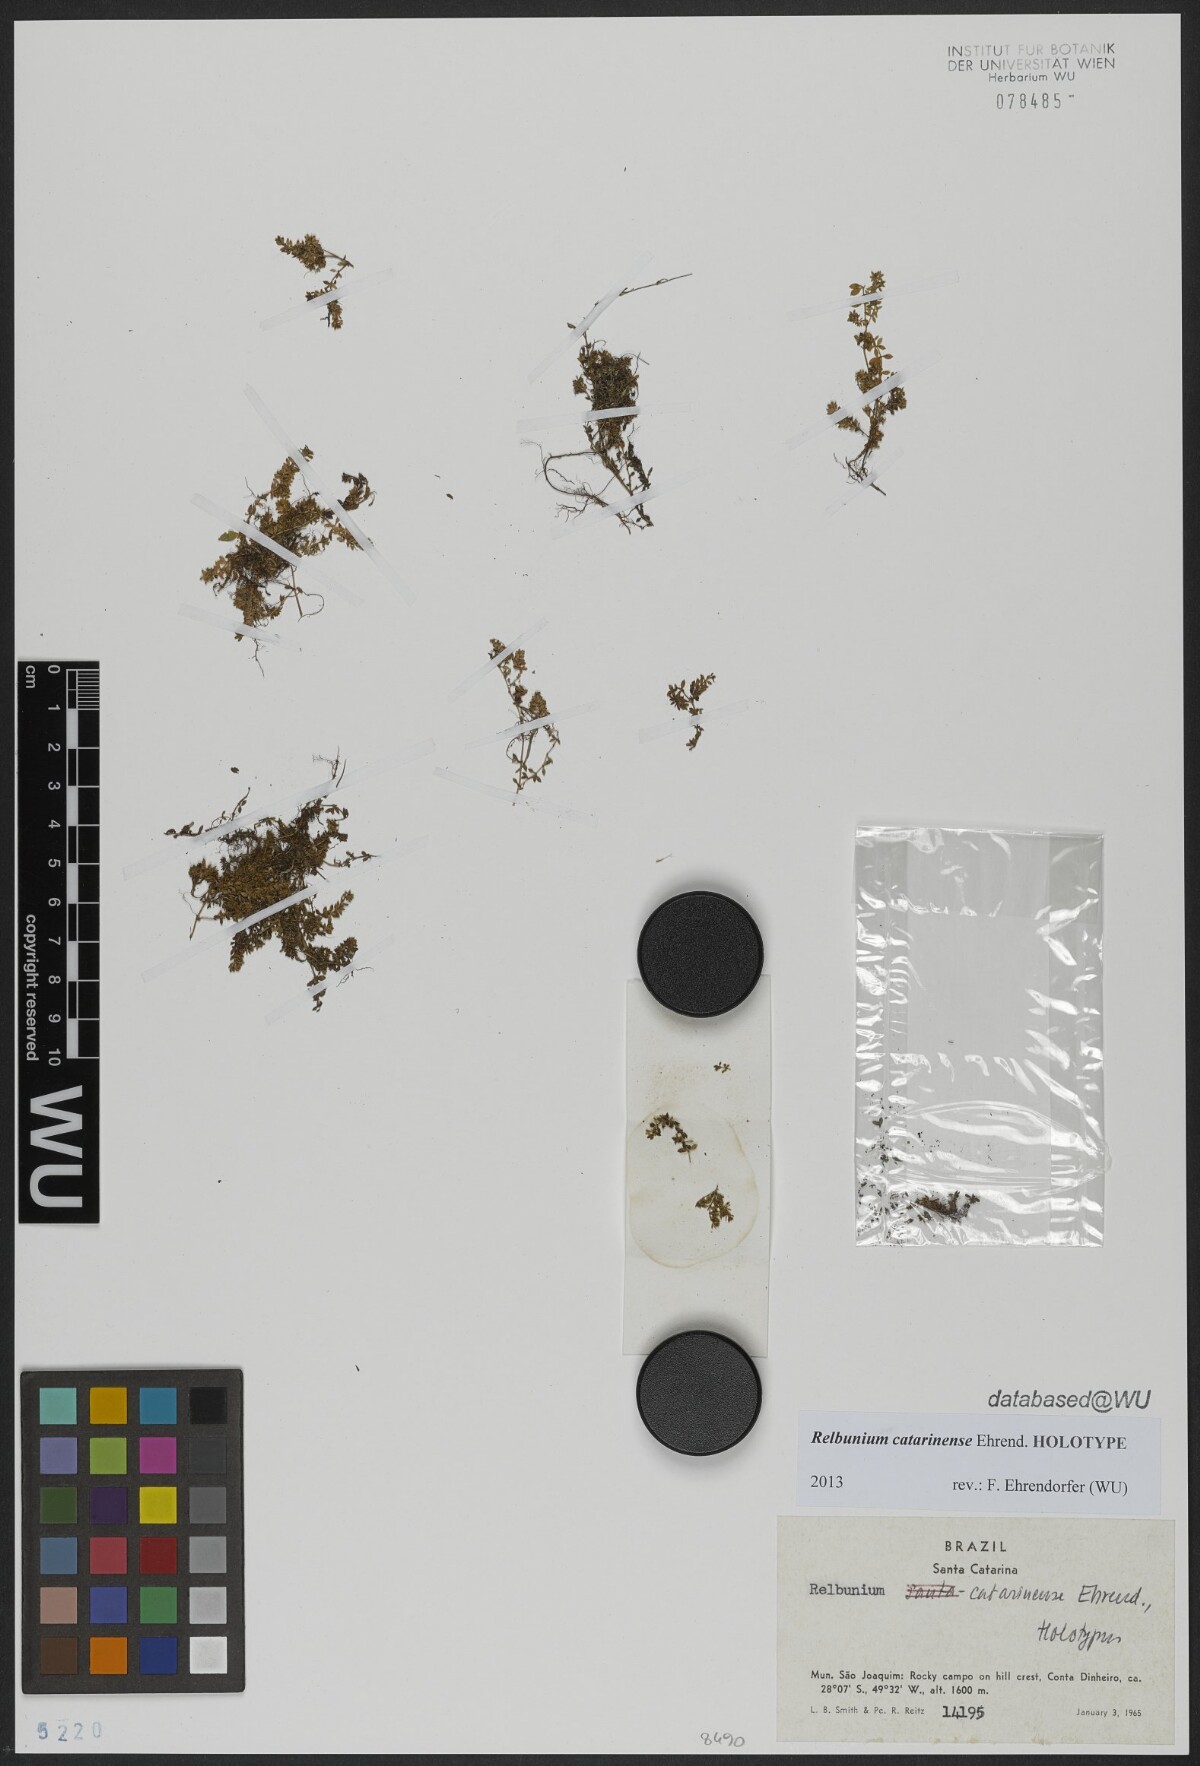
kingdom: Plantae
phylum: Tracheophyta
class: Magnoliopsida
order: Gentianales
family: Rubiaceae
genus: Galium
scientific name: Galium Relbunium catarinense
